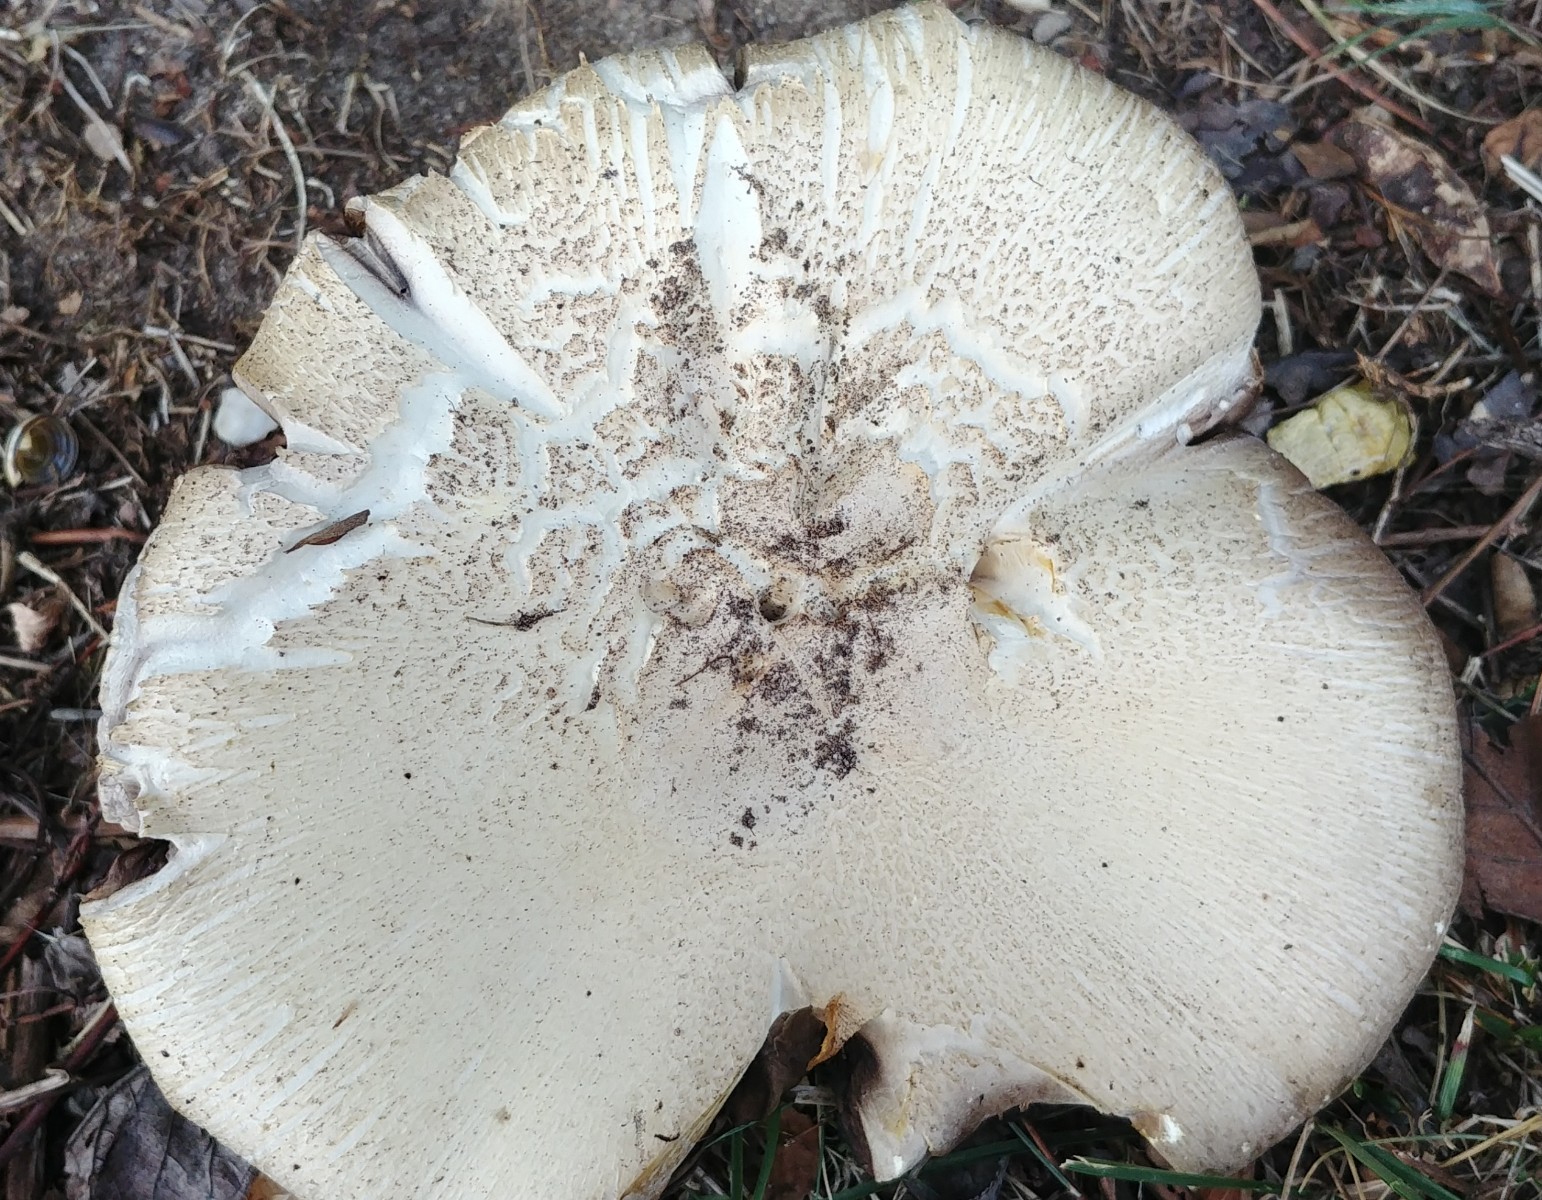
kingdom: Fungi
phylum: Basidiomycota
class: Agaricomycetes
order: Agaricales
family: Agaricaceae
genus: Agaricus
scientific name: Agaricus
